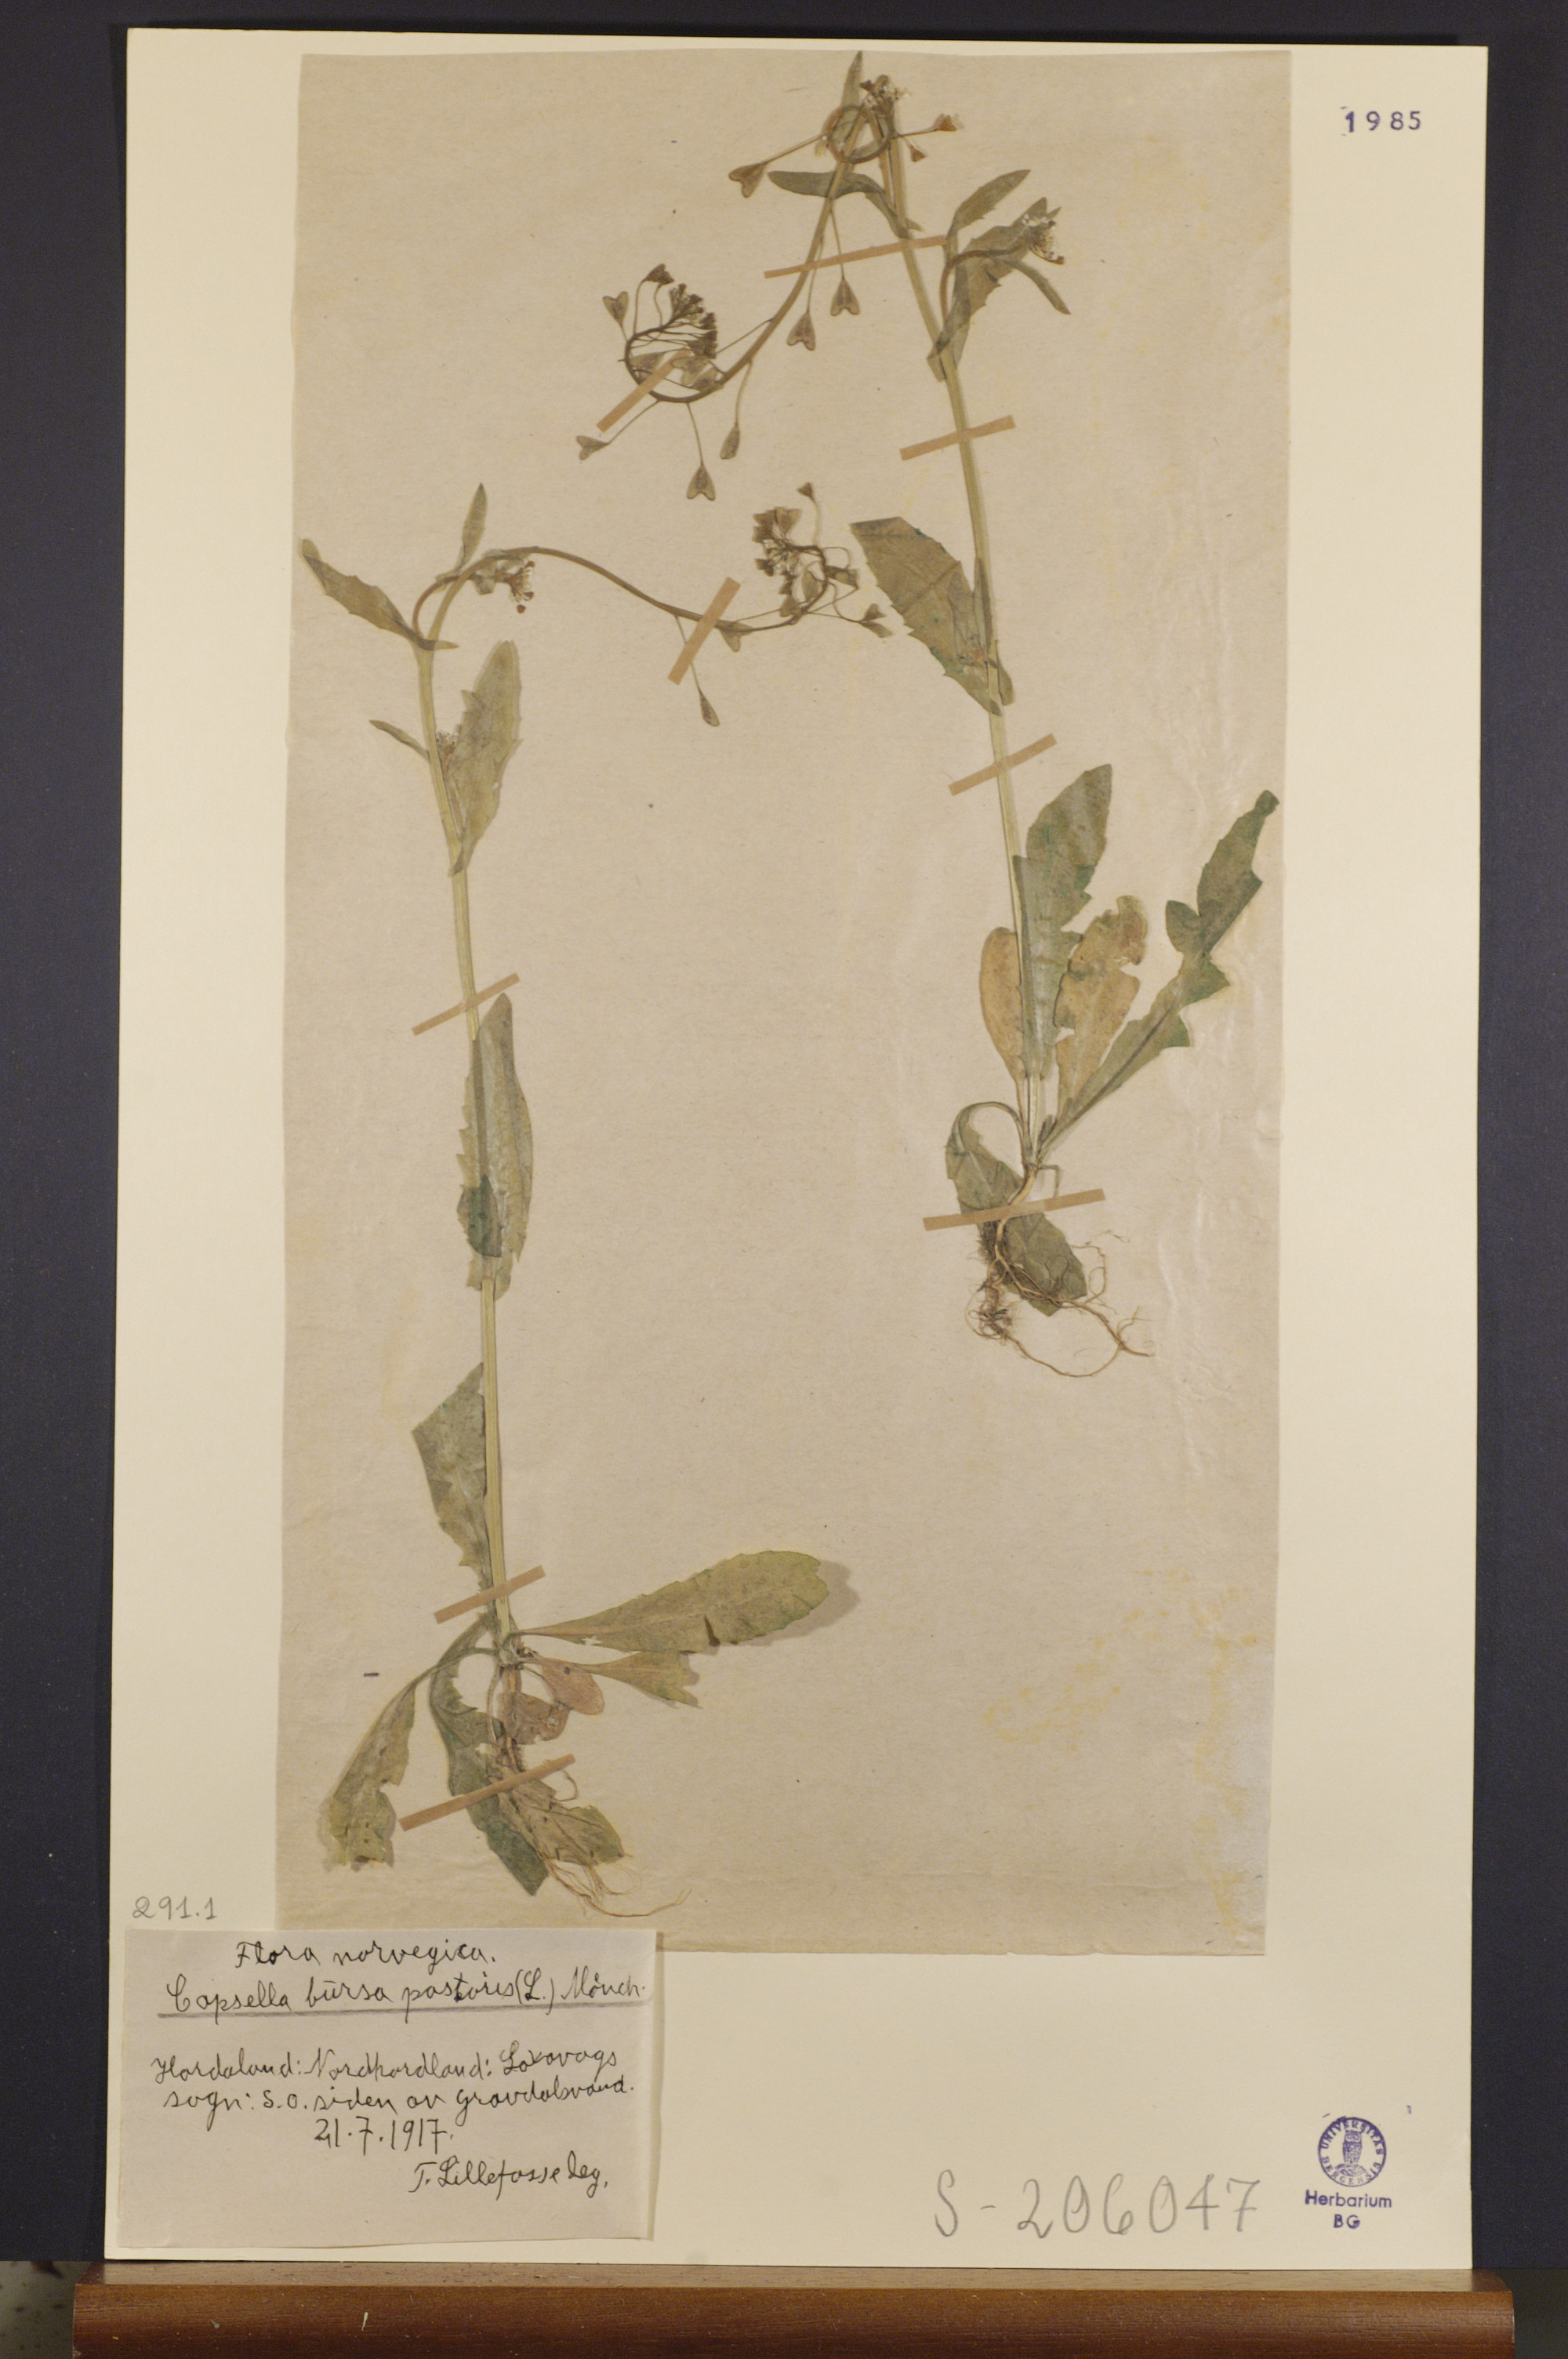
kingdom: Plantae
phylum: Tracheophyta
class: Magnoliopsida
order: Brassicales
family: Brassicaceae
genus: Capsella
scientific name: Capsella bursa-pastoris
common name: Shepherd's purse
